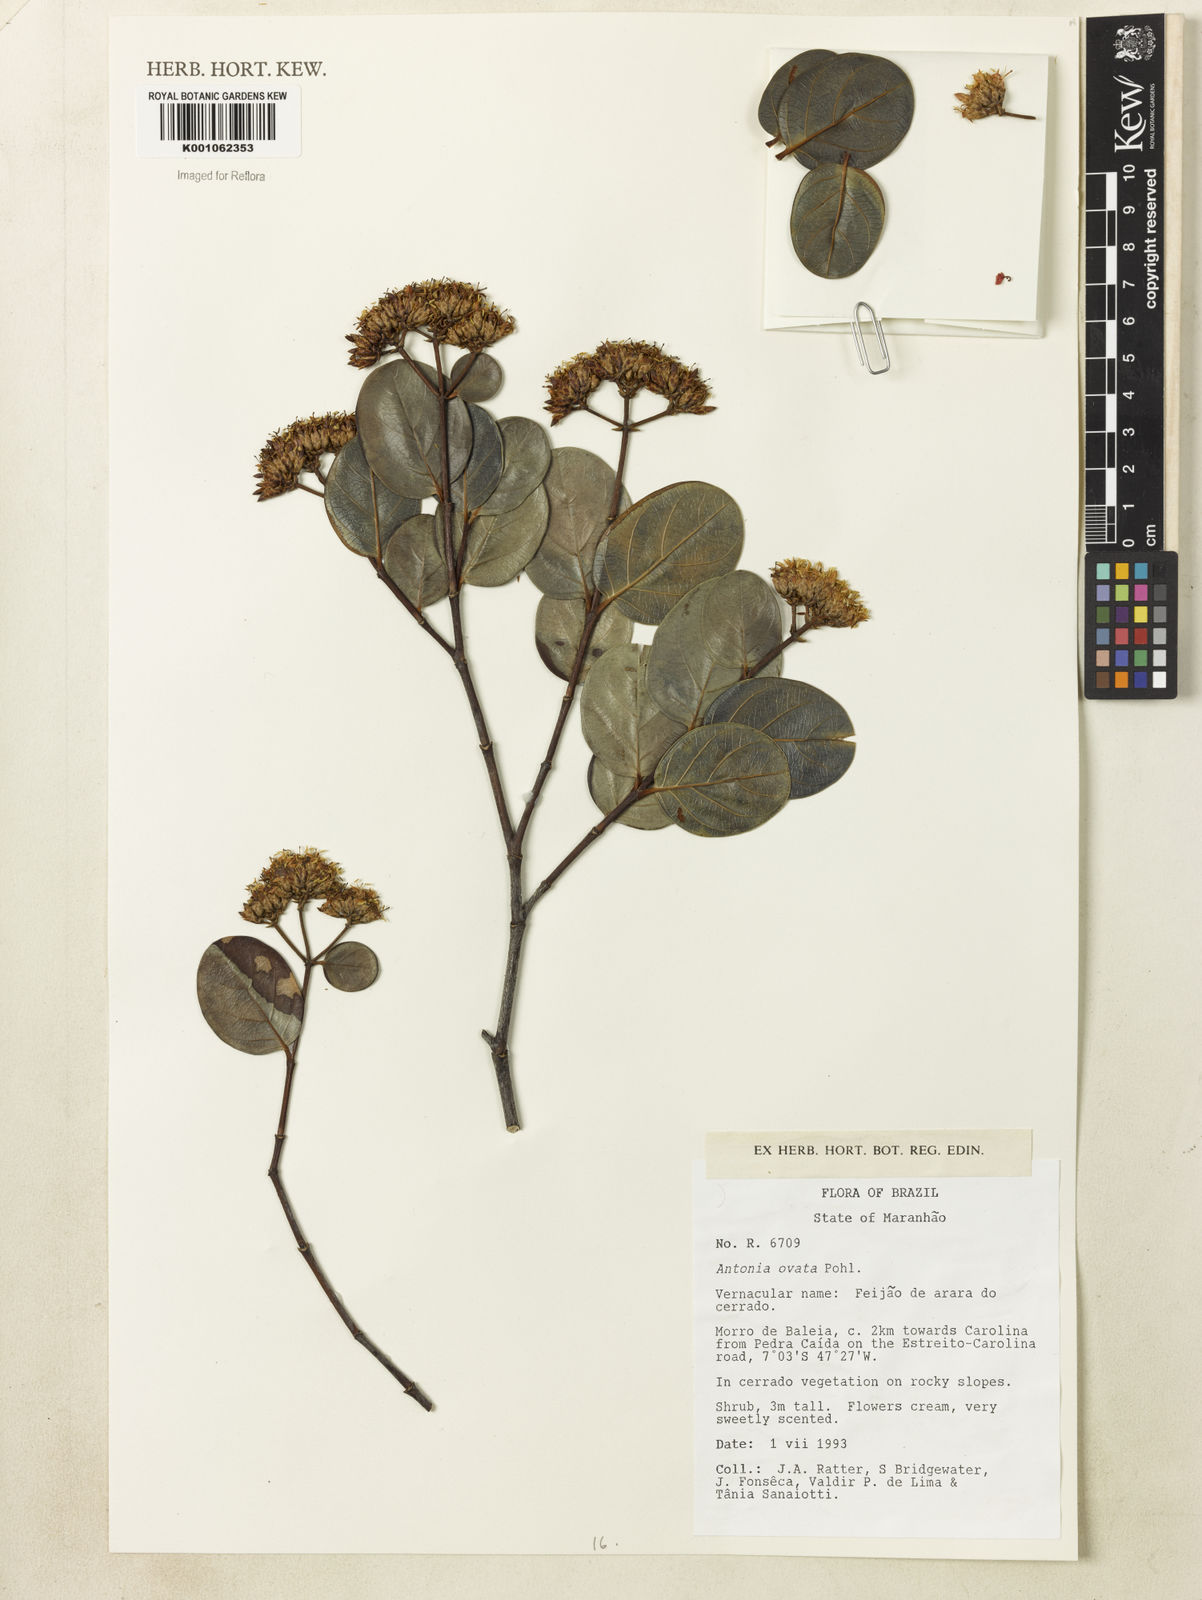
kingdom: Plantae
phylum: Tracheophyta
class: Magnoliopsida
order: Gentianales
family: Loganiaceae
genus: Antonia
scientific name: Antonia ovata
